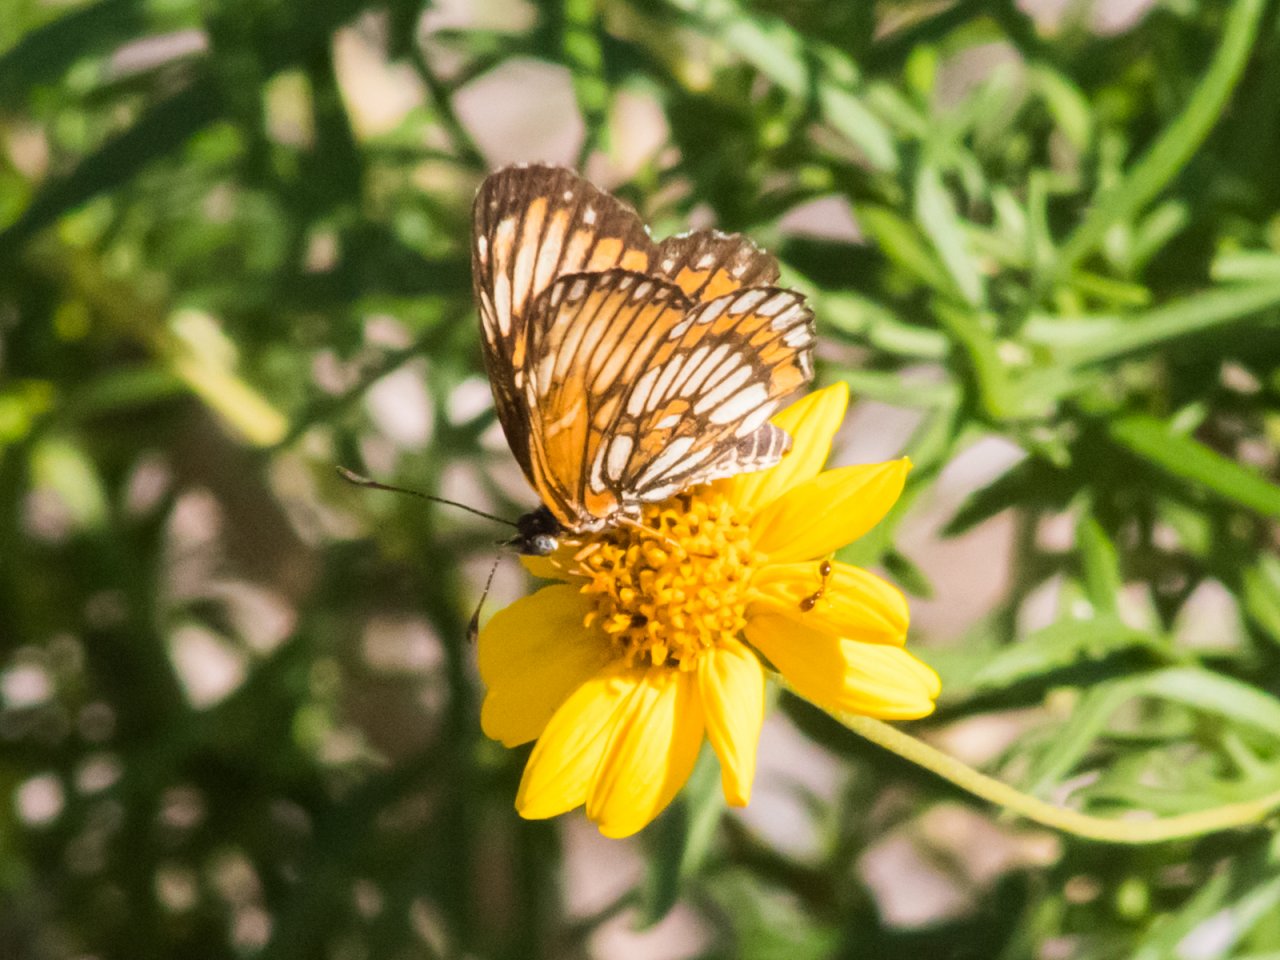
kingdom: Animalia
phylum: Arthropoda
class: Insecta
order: Lepidoptera
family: Nymphalidae
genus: Thessalia
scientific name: Thessalia theona
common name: Theona Checkerspot
